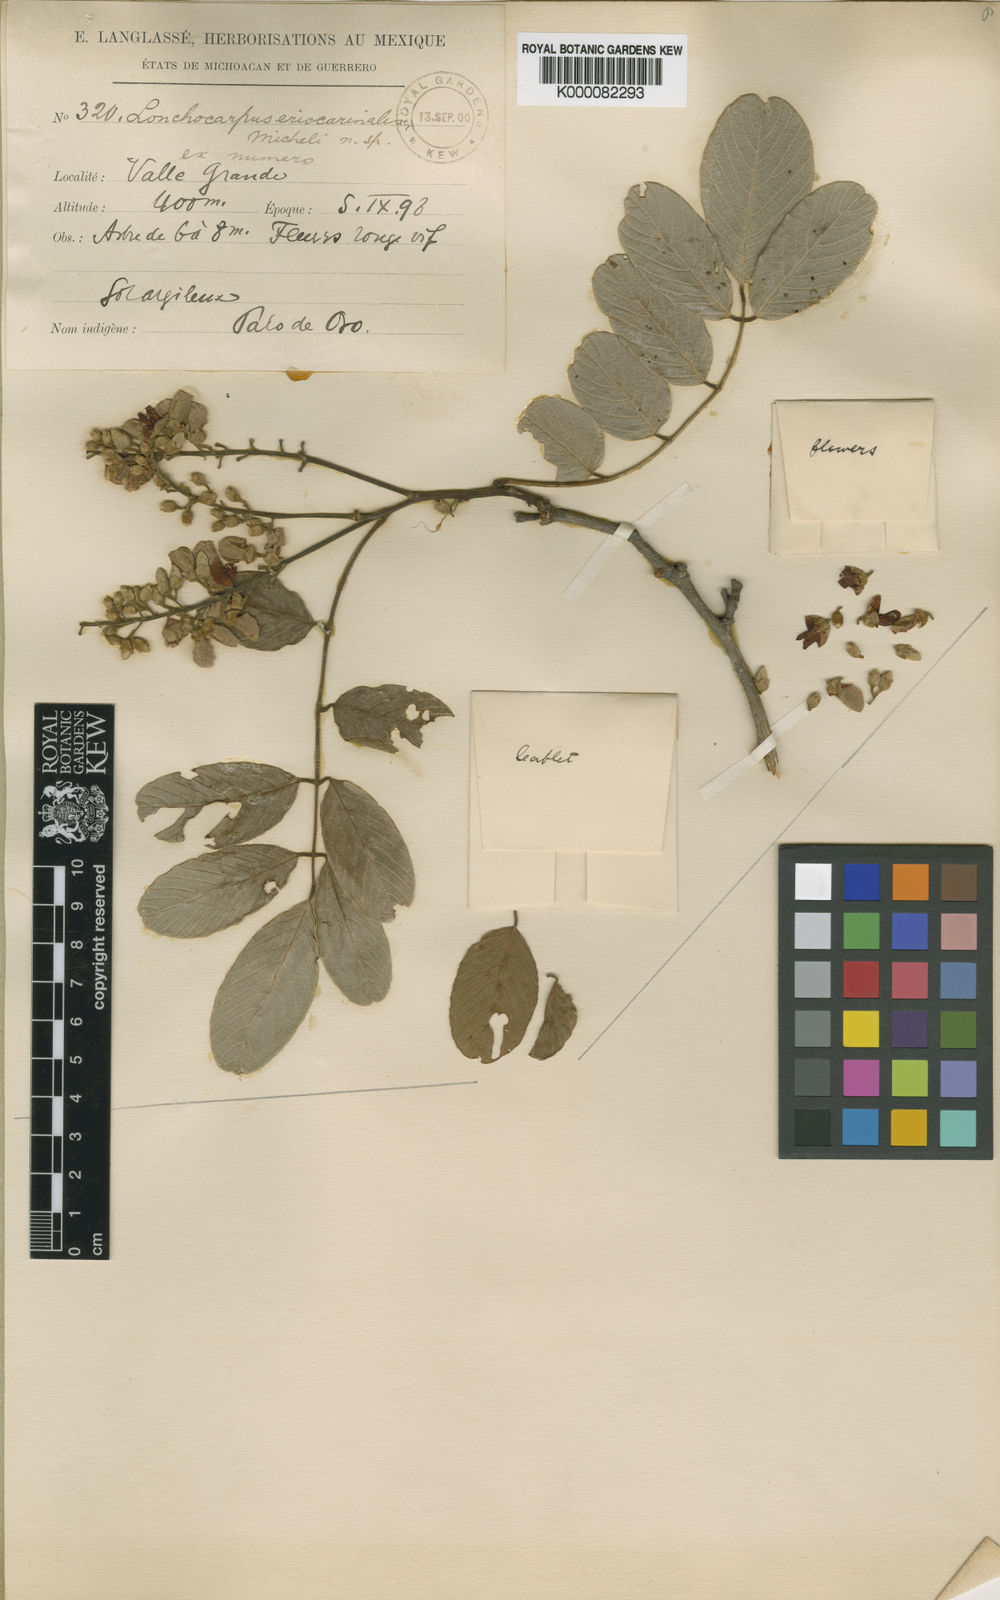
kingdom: Plantae
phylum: Tracheophyta
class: Magnoliopsida
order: Fabales
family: Fabaceae
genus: Lonchocarpus
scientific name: Lonchocarpus eriocarinalis
